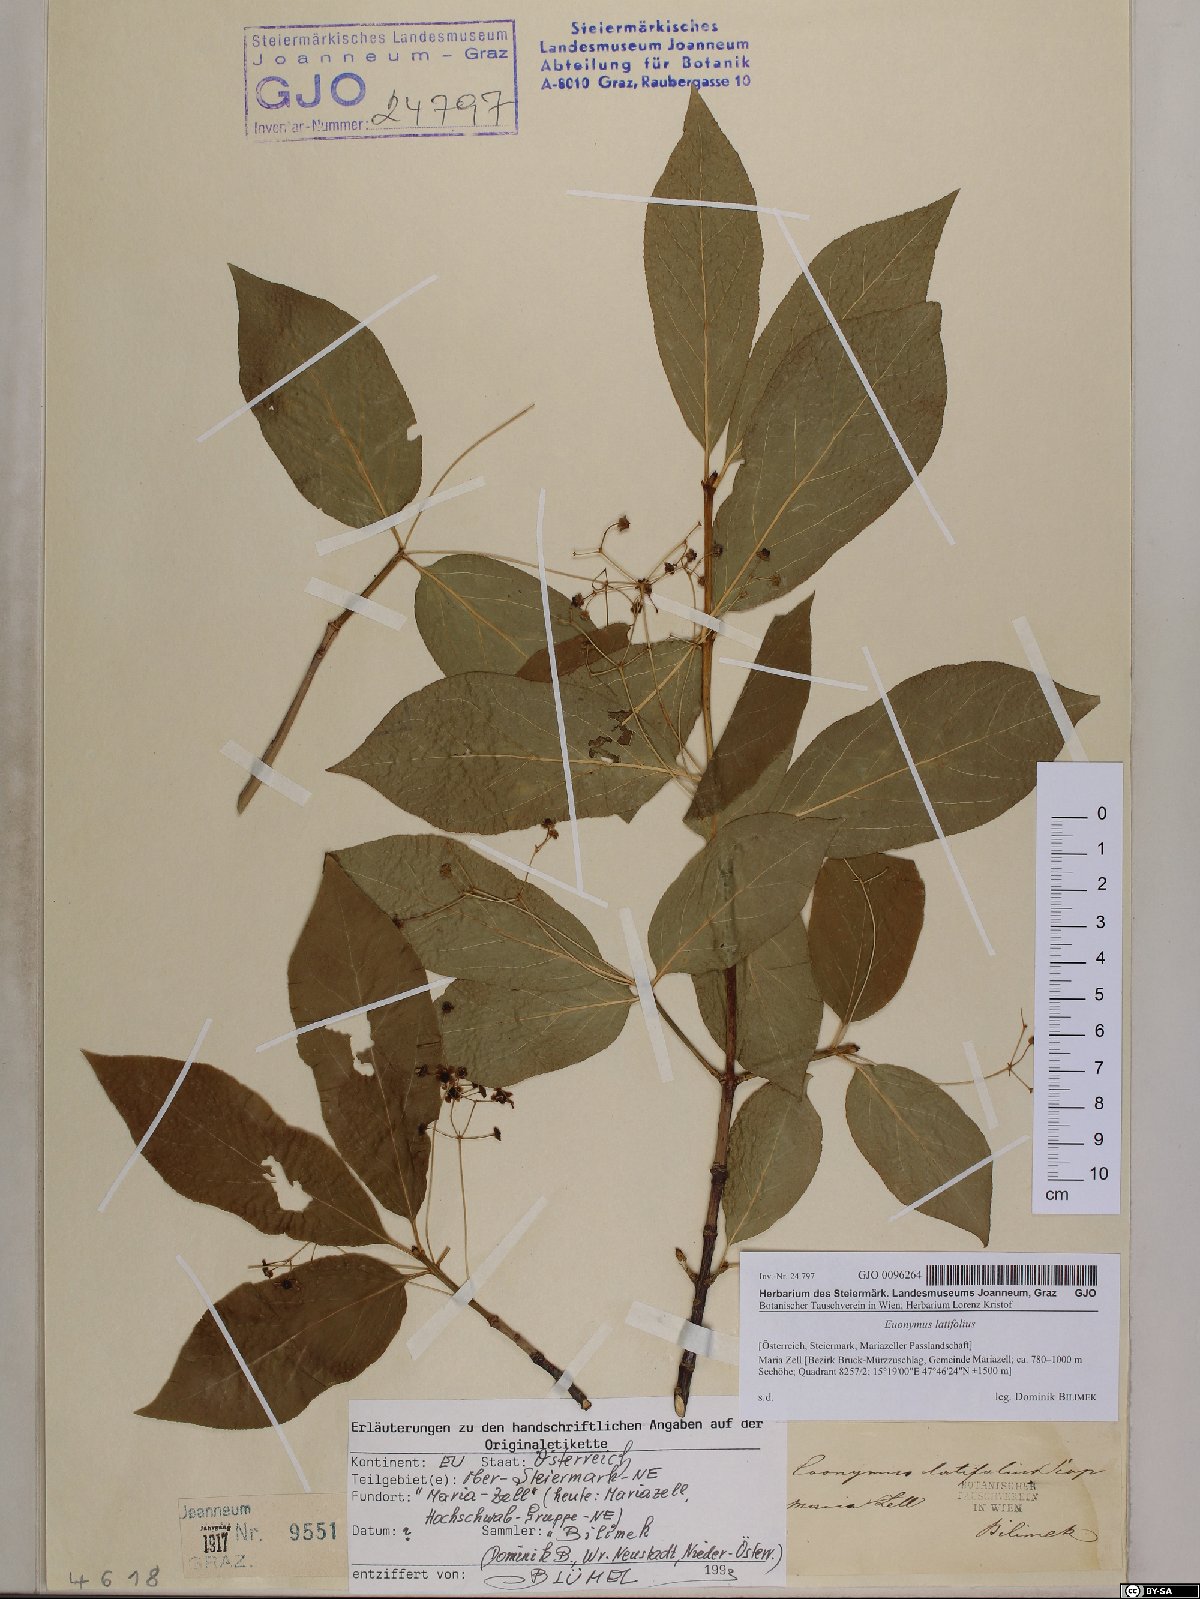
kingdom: Plantae
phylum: Tracheophyta
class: Magnoliopsida
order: Celastrales
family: Celastraceae
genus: Euonymus
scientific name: Euonymus latifolius
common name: Large-leaved spindle
